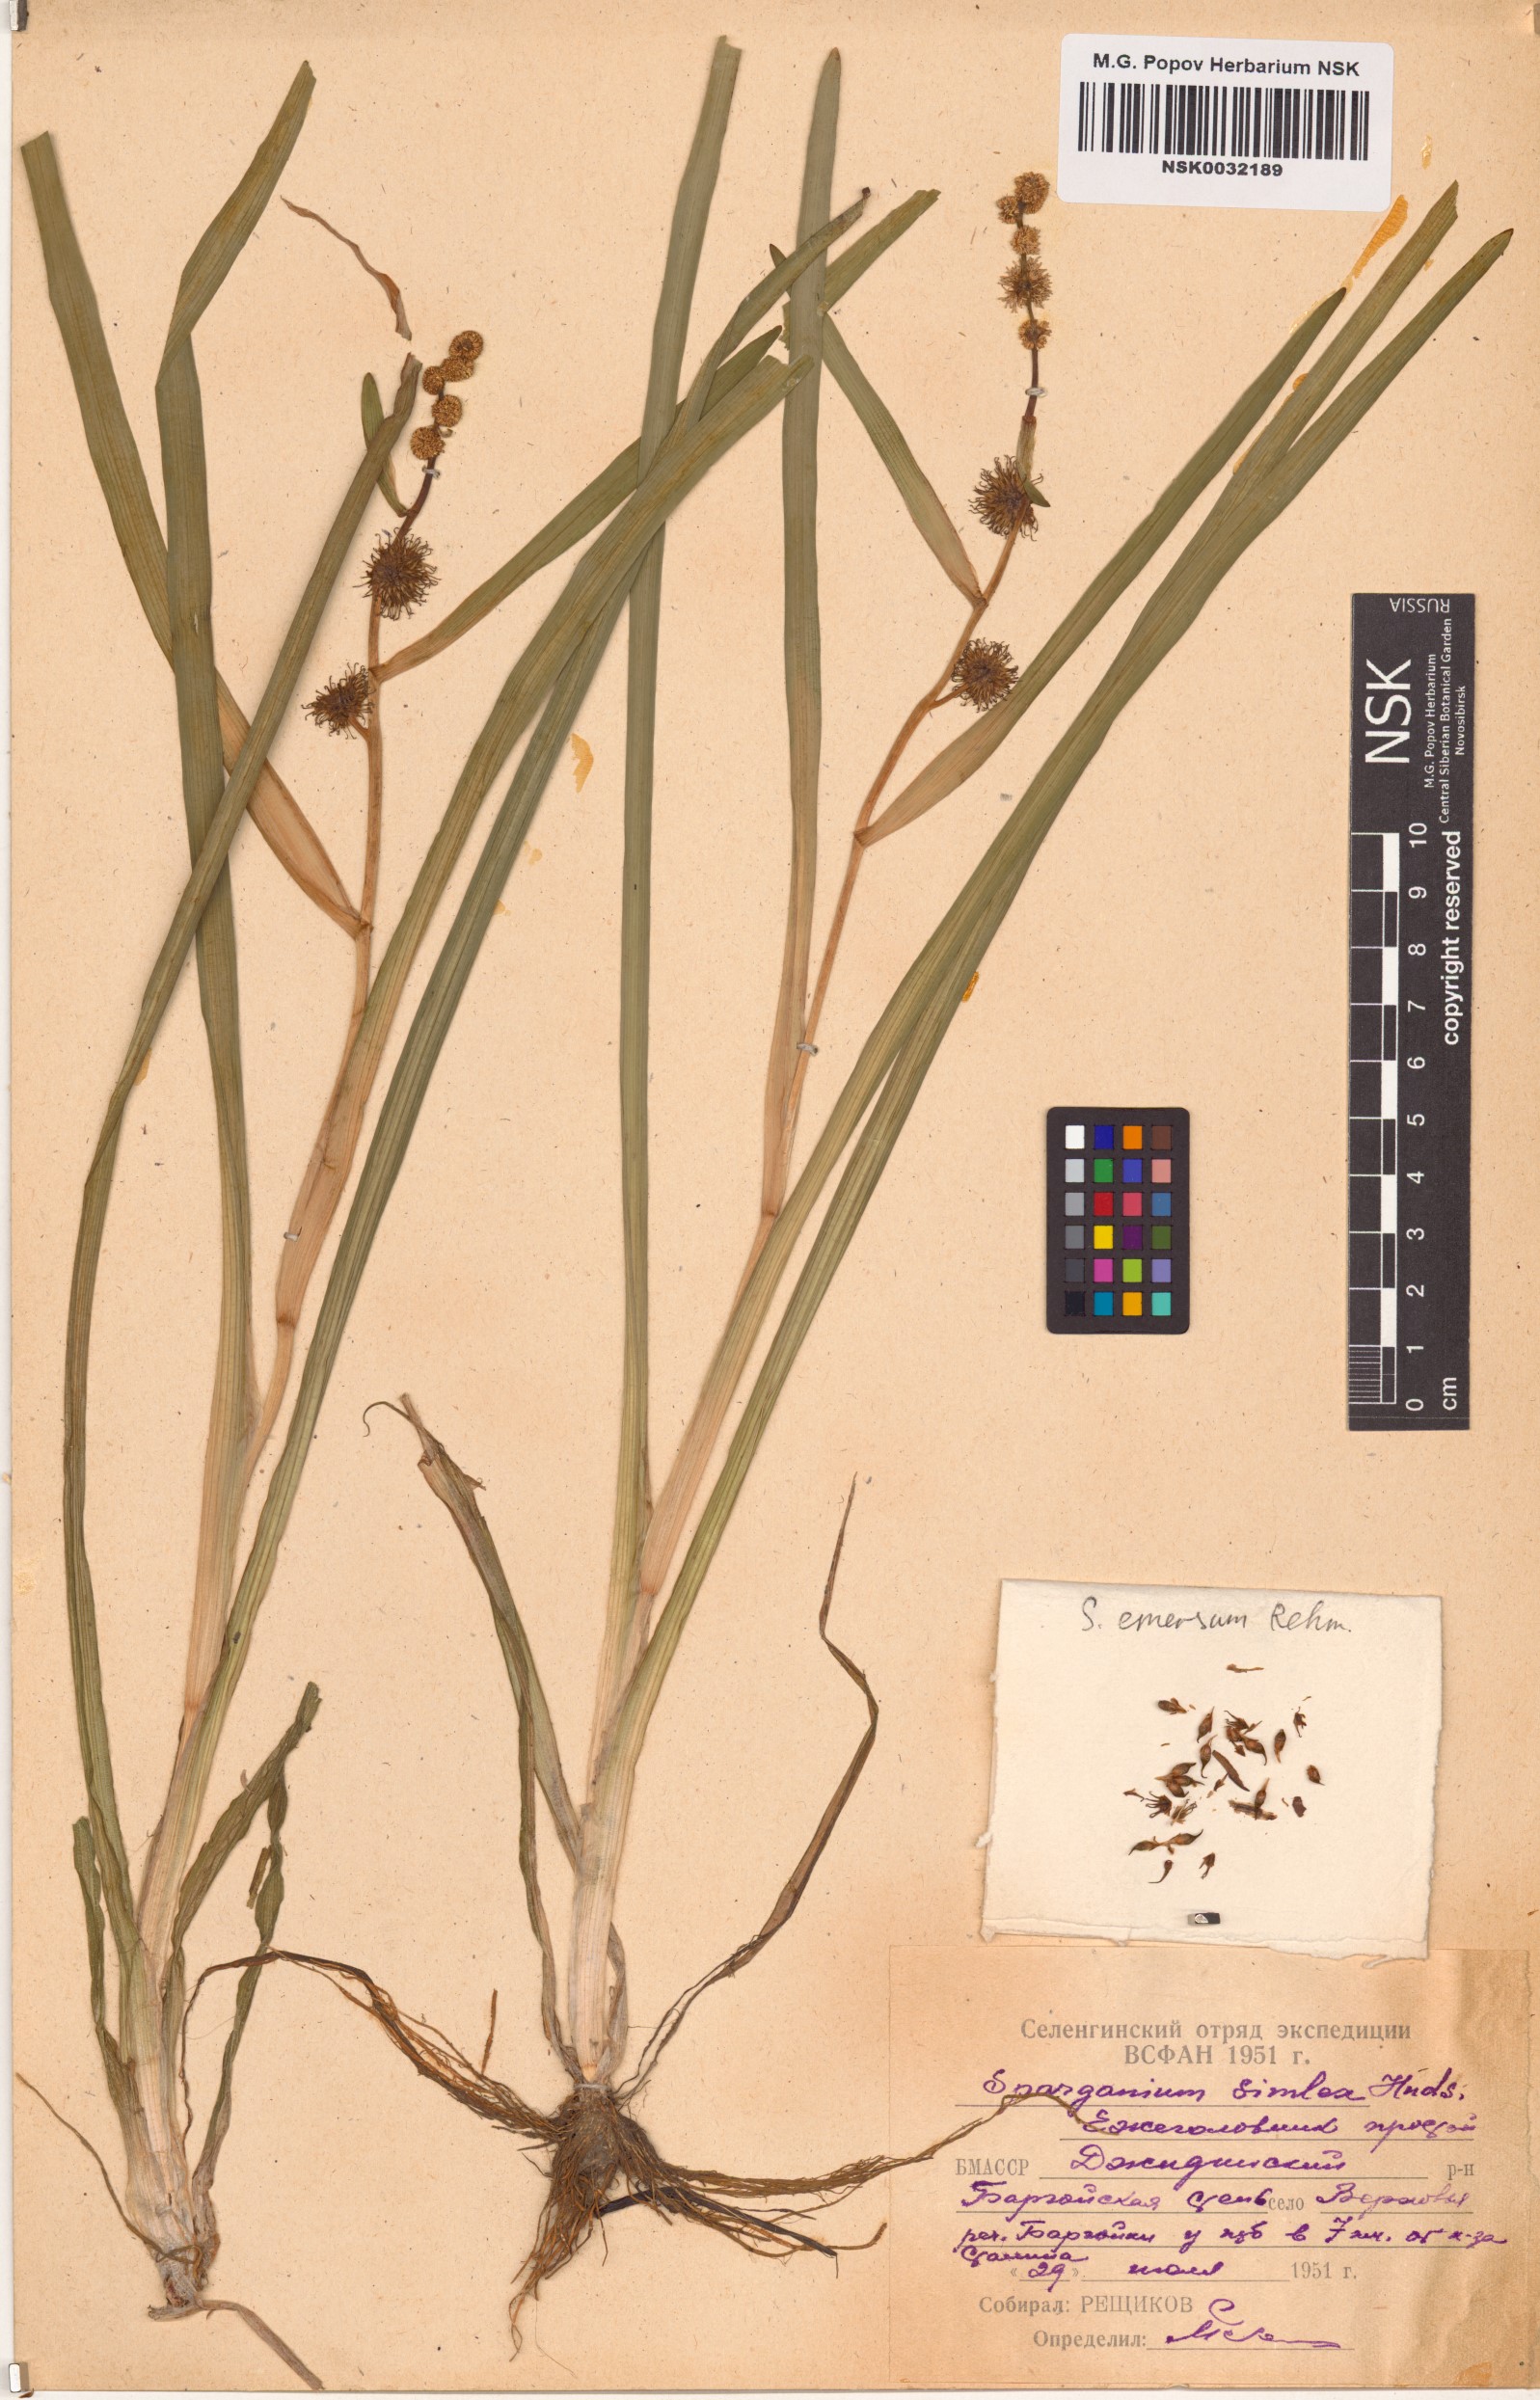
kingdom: Plantae
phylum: Tracheophyta
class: Liliopsida
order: Poales
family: Typhaceae
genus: Sparganium
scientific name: Sparganium emersum
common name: Unbranched bur-reed
